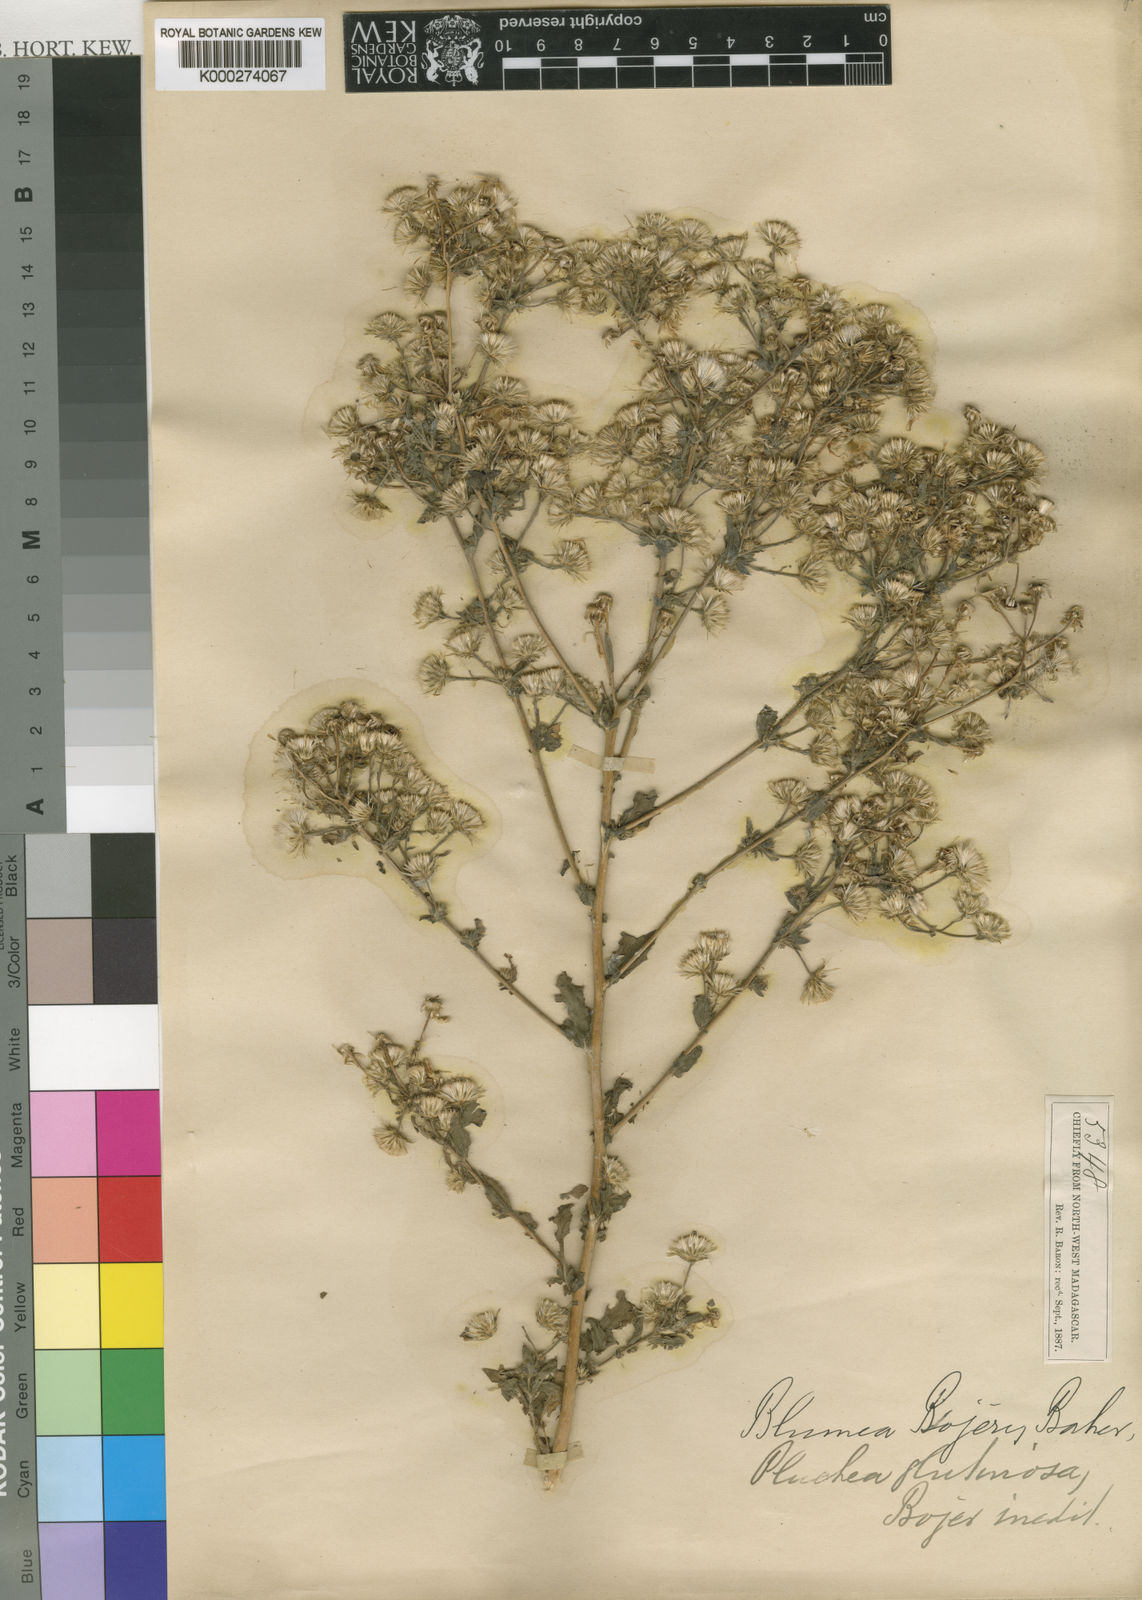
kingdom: Plantae
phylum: Tracheophyta
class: Magnoliopsida
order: Asterales
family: Asteraceae
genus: Pseudoconyza
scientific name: Pseudoconyza viscosa
